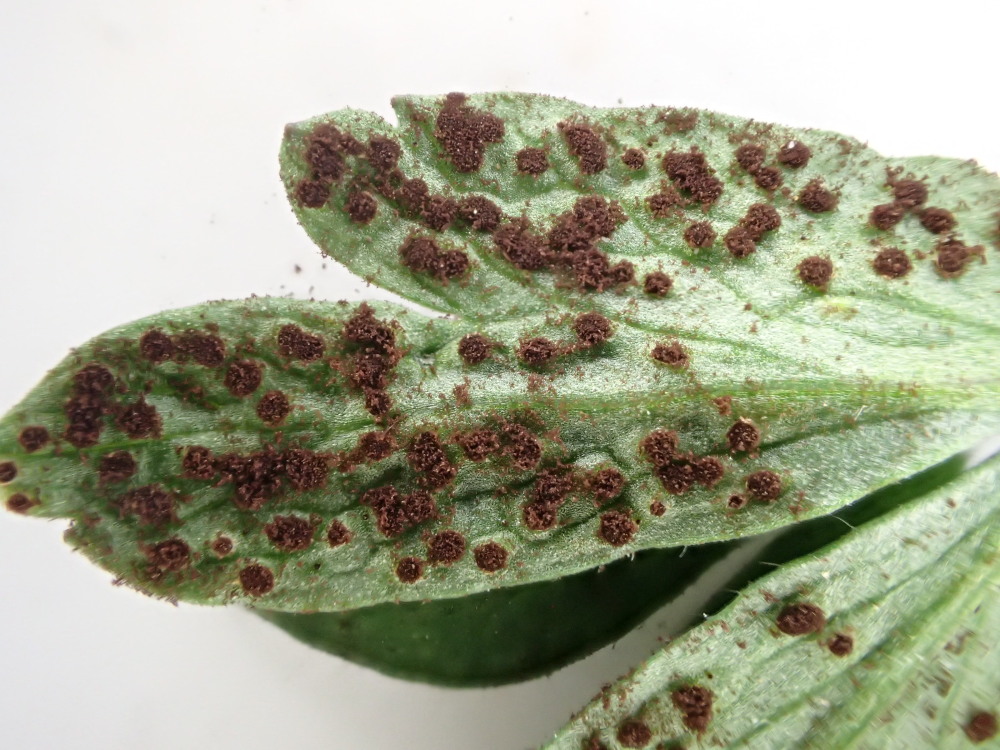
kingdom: Fungi
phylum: Basidiomycota
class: Pucciniomycetes
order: Pucciniales
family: Tranzscheliaceae
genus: Tranzschelia
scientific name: Tranzschelia anemones
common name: anemone-knæksporerust
